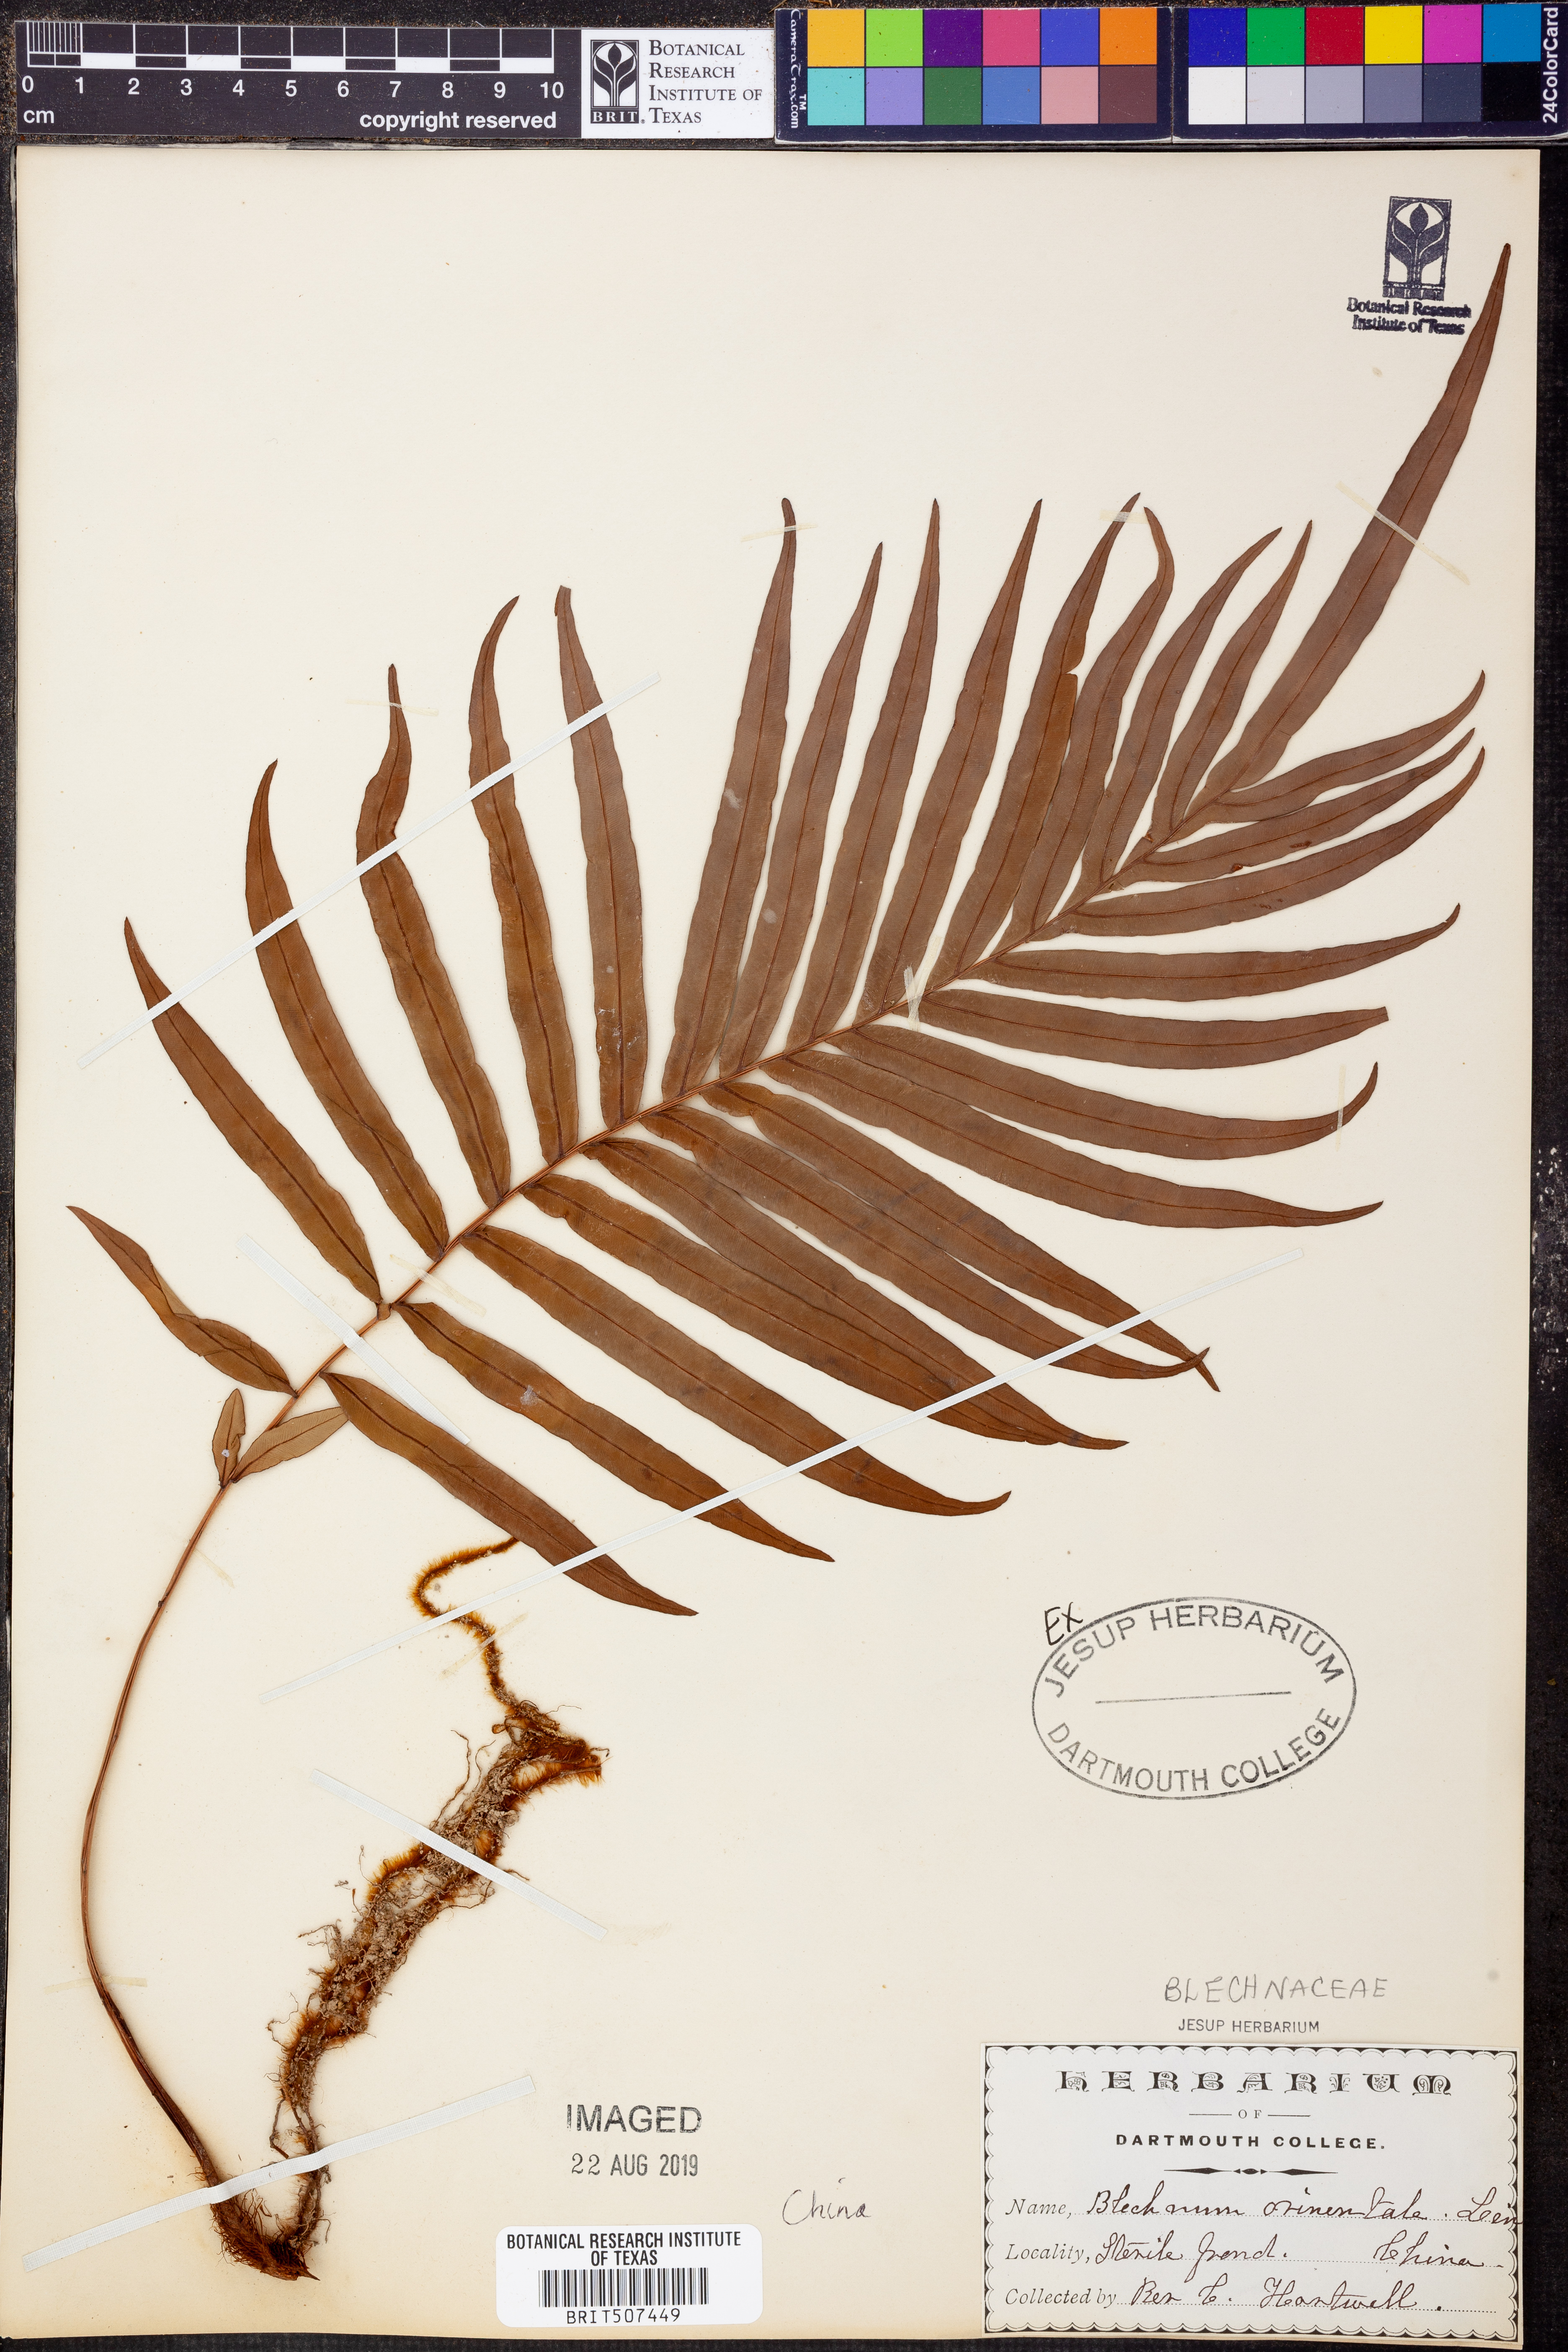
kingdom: Plantae
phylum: Tracheophyta
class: Polypodiopsida
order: Polypodiales
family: Blechnaceae
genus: Blechnopsis
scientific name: Blechnopsis orientalis
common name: Oriental blechnum
